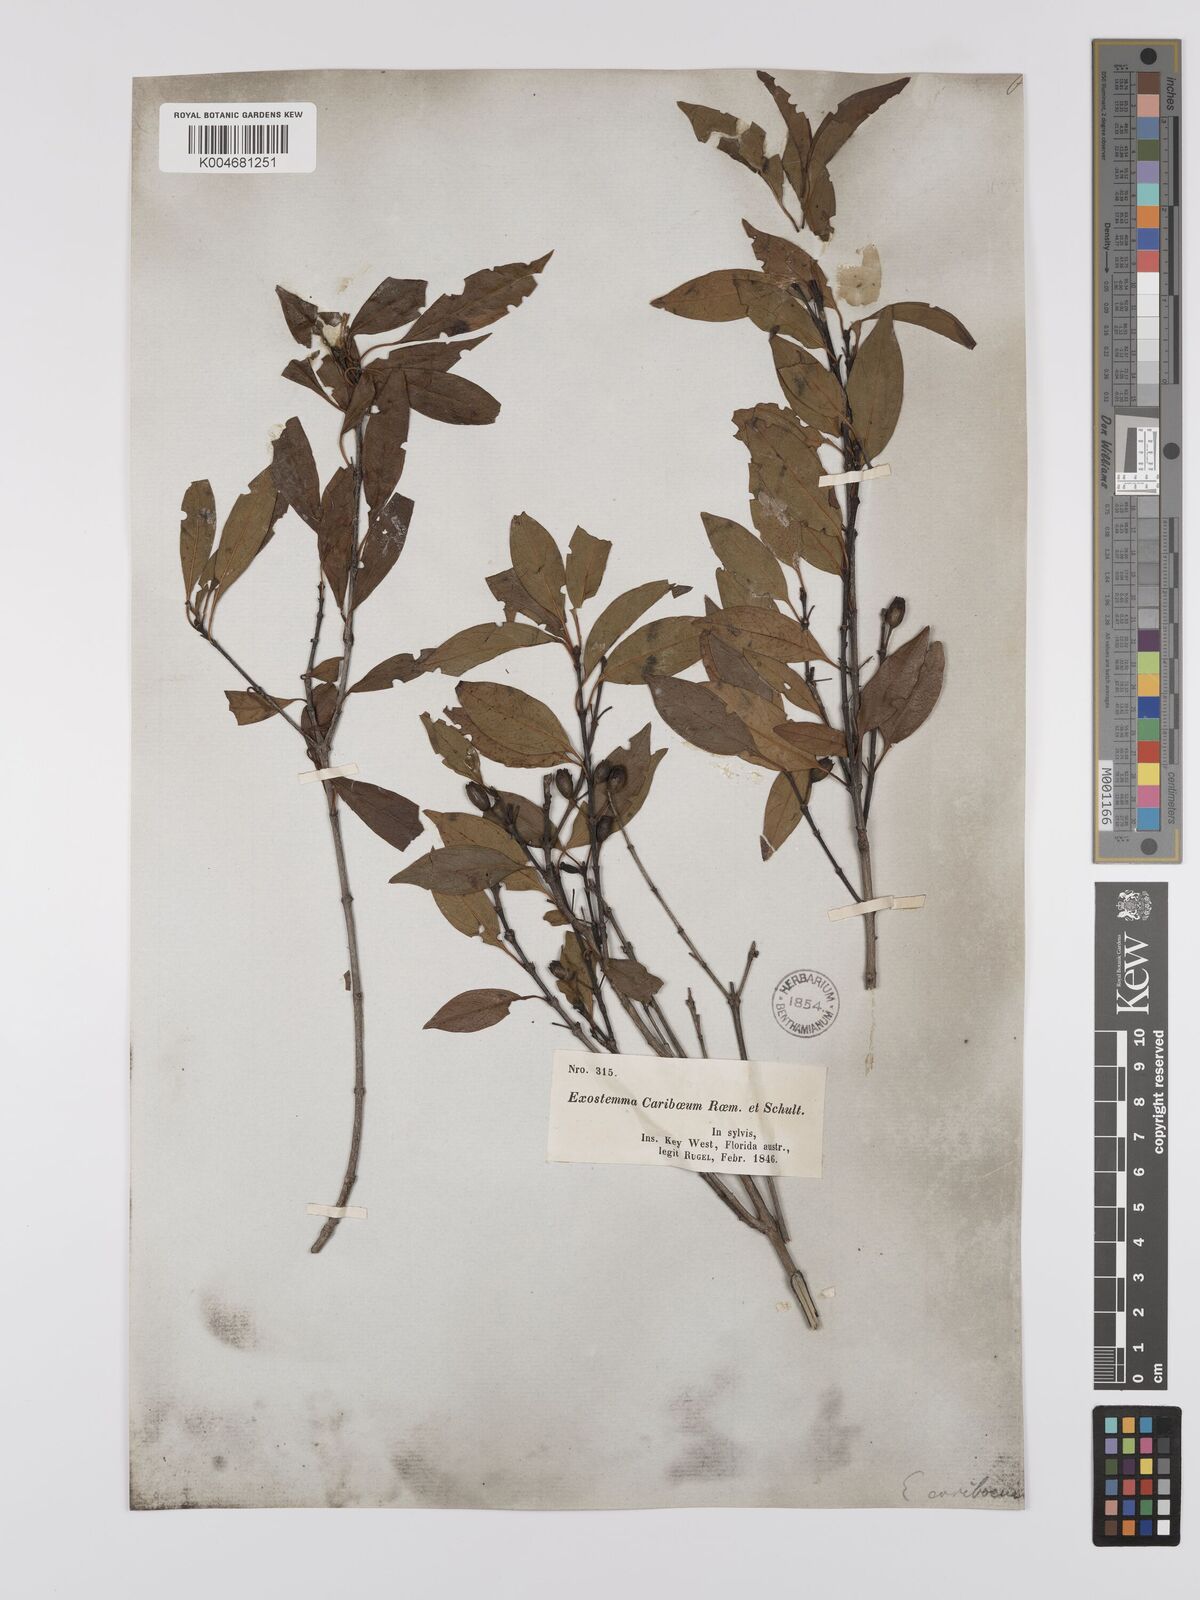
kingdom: Plantae
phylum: Tracheophyta
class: Magnoliopsida
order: Gentianales
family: Rubiaceae
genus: Exostema
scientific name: Exostema caribaeum
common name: Princewood
